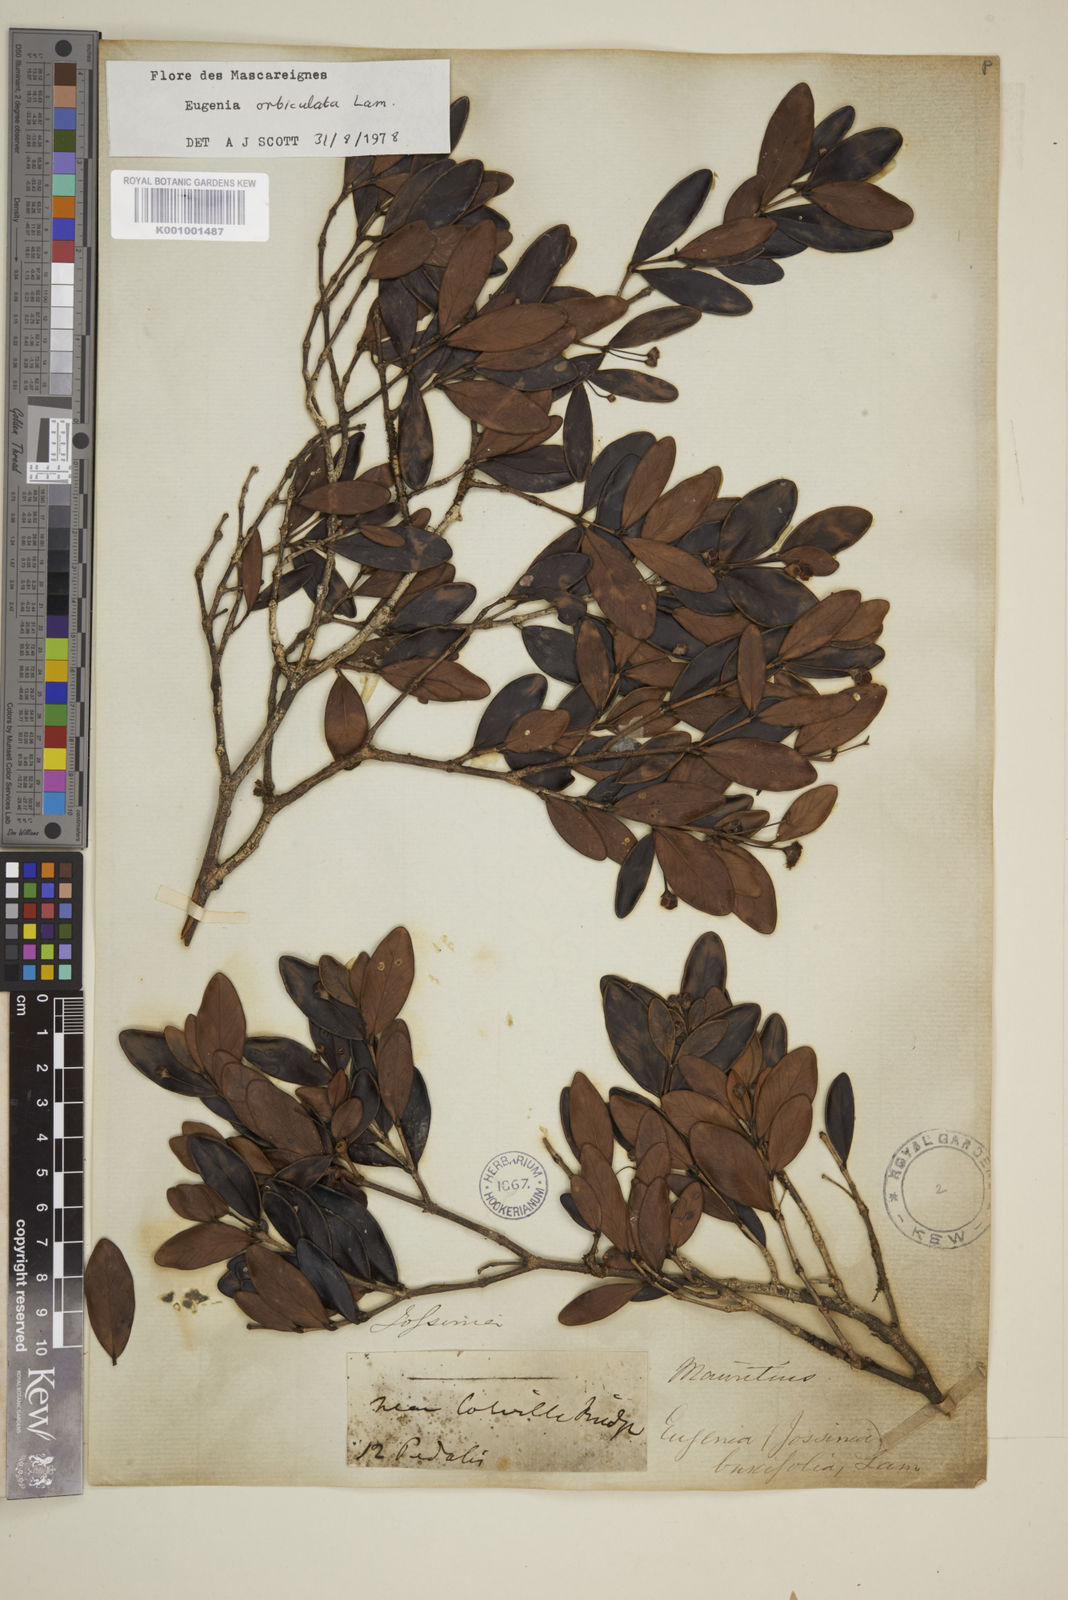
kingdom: Plantae
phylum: Tracheophyta
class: Magnoliopsida
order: Myrtales
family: Myrtaceae
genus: Eugenia
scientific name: Eugenia orbiculata
